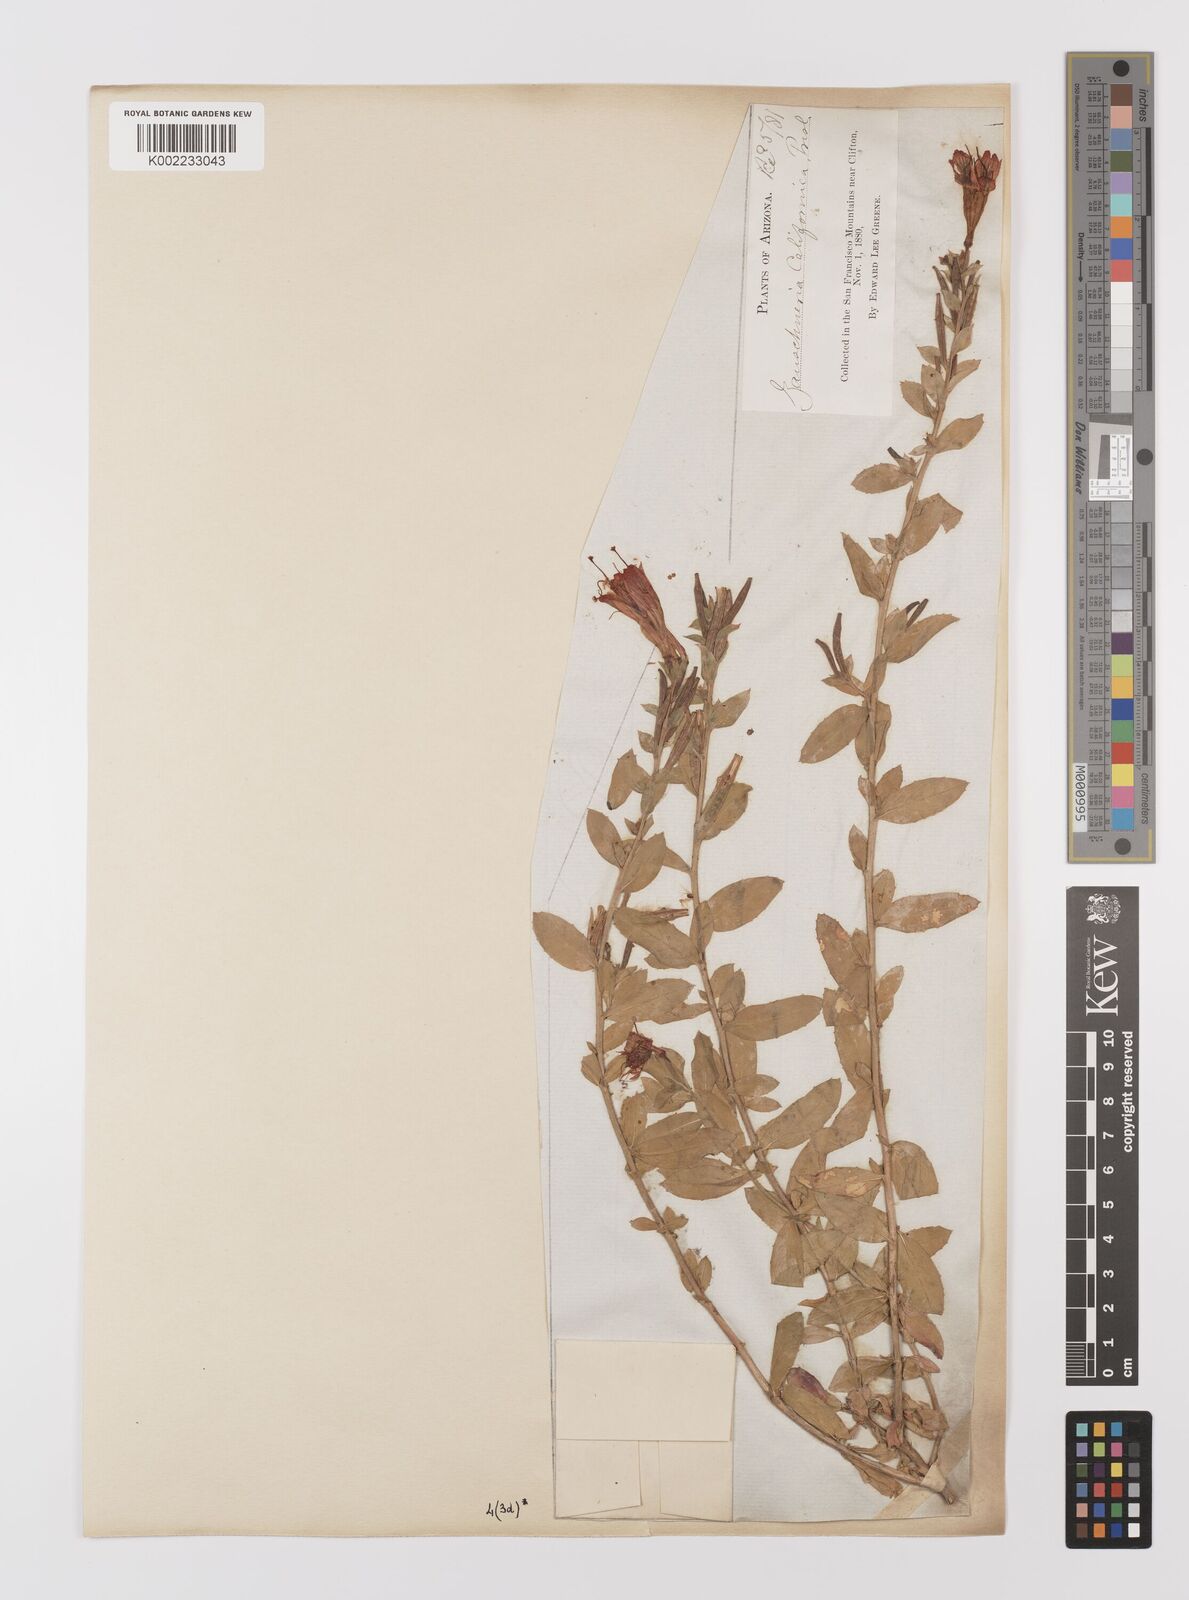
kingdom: Plantae
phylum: Tracheophyta
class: Magnoliopsida
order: Myrtales
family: Onagraceae
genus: Epilobium
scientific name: Epilobium
